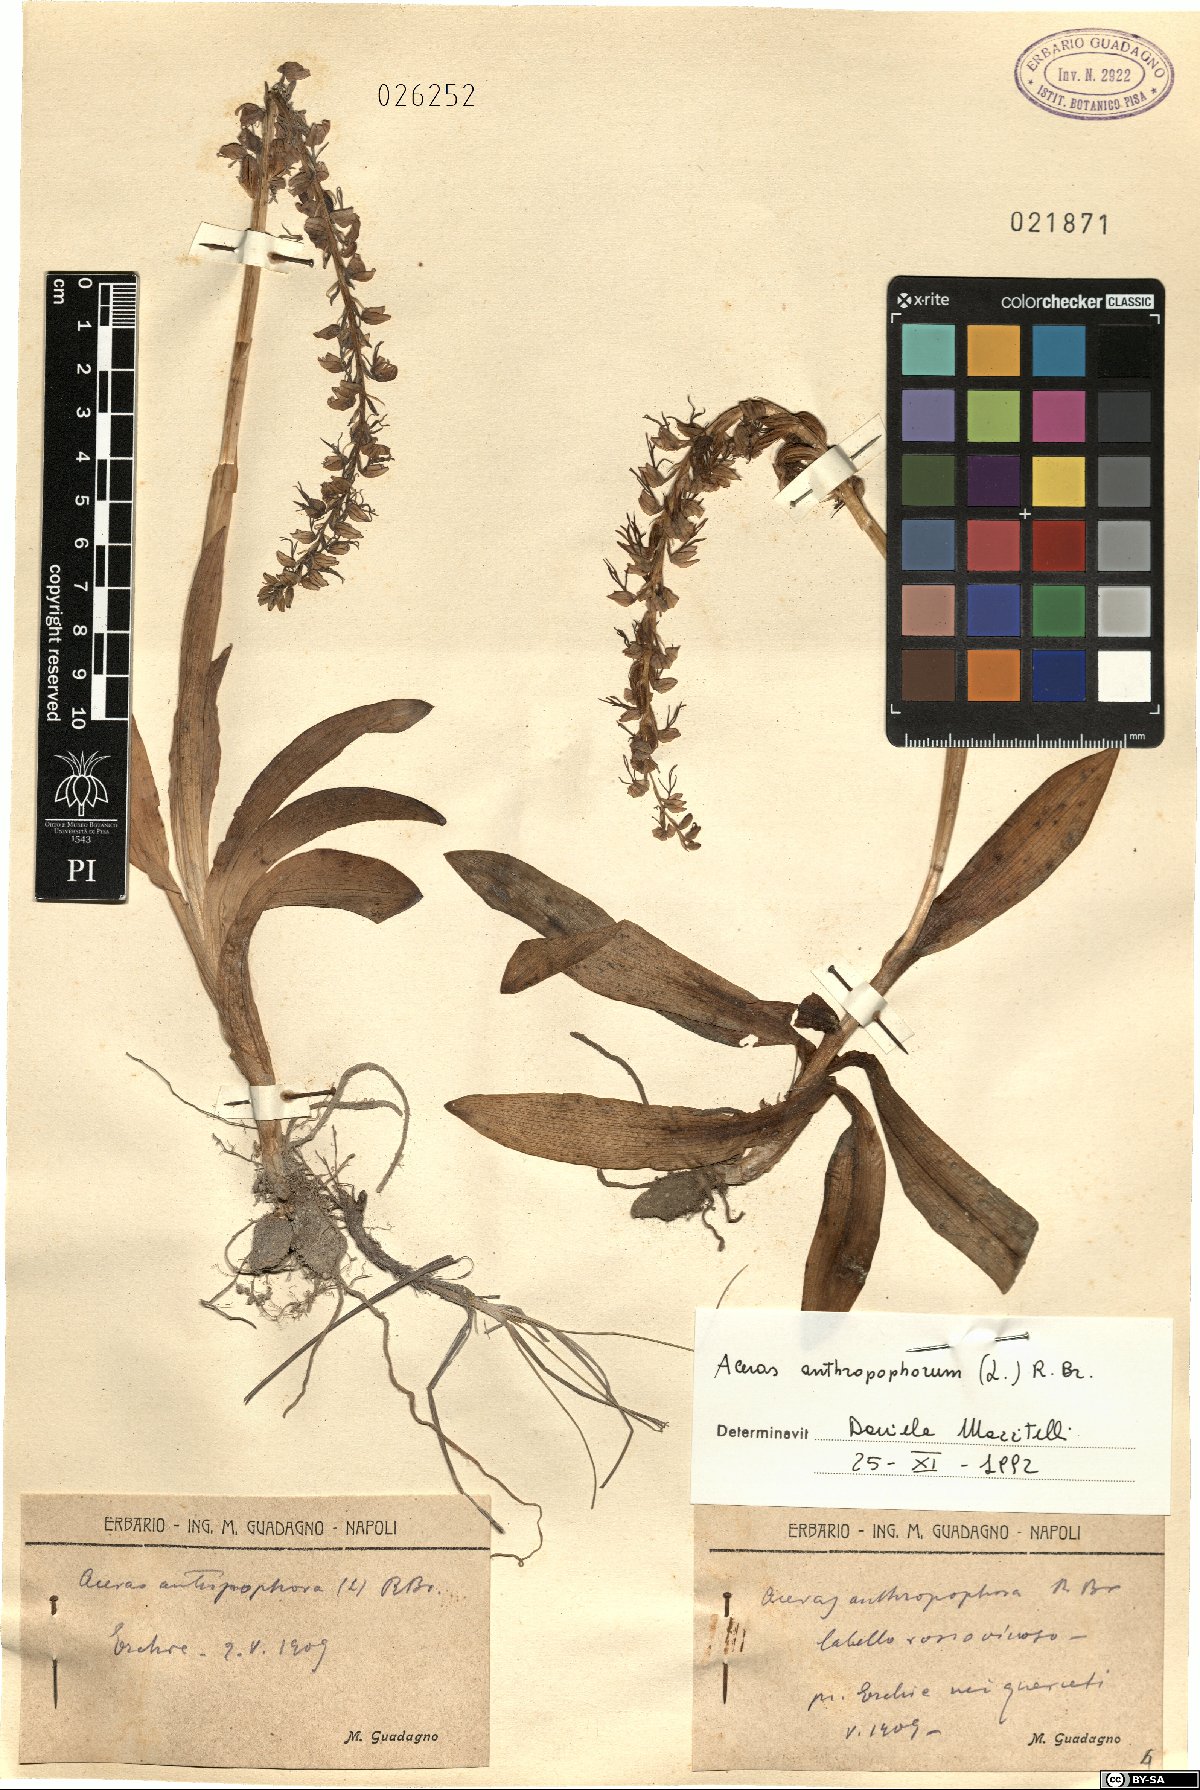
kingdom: Plantae
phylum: Tracheophyta
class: Liliopsida
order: Asparagales
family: Orchidaceae
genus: Orchis
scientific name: Orchis anthropophora
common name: Man orchid
